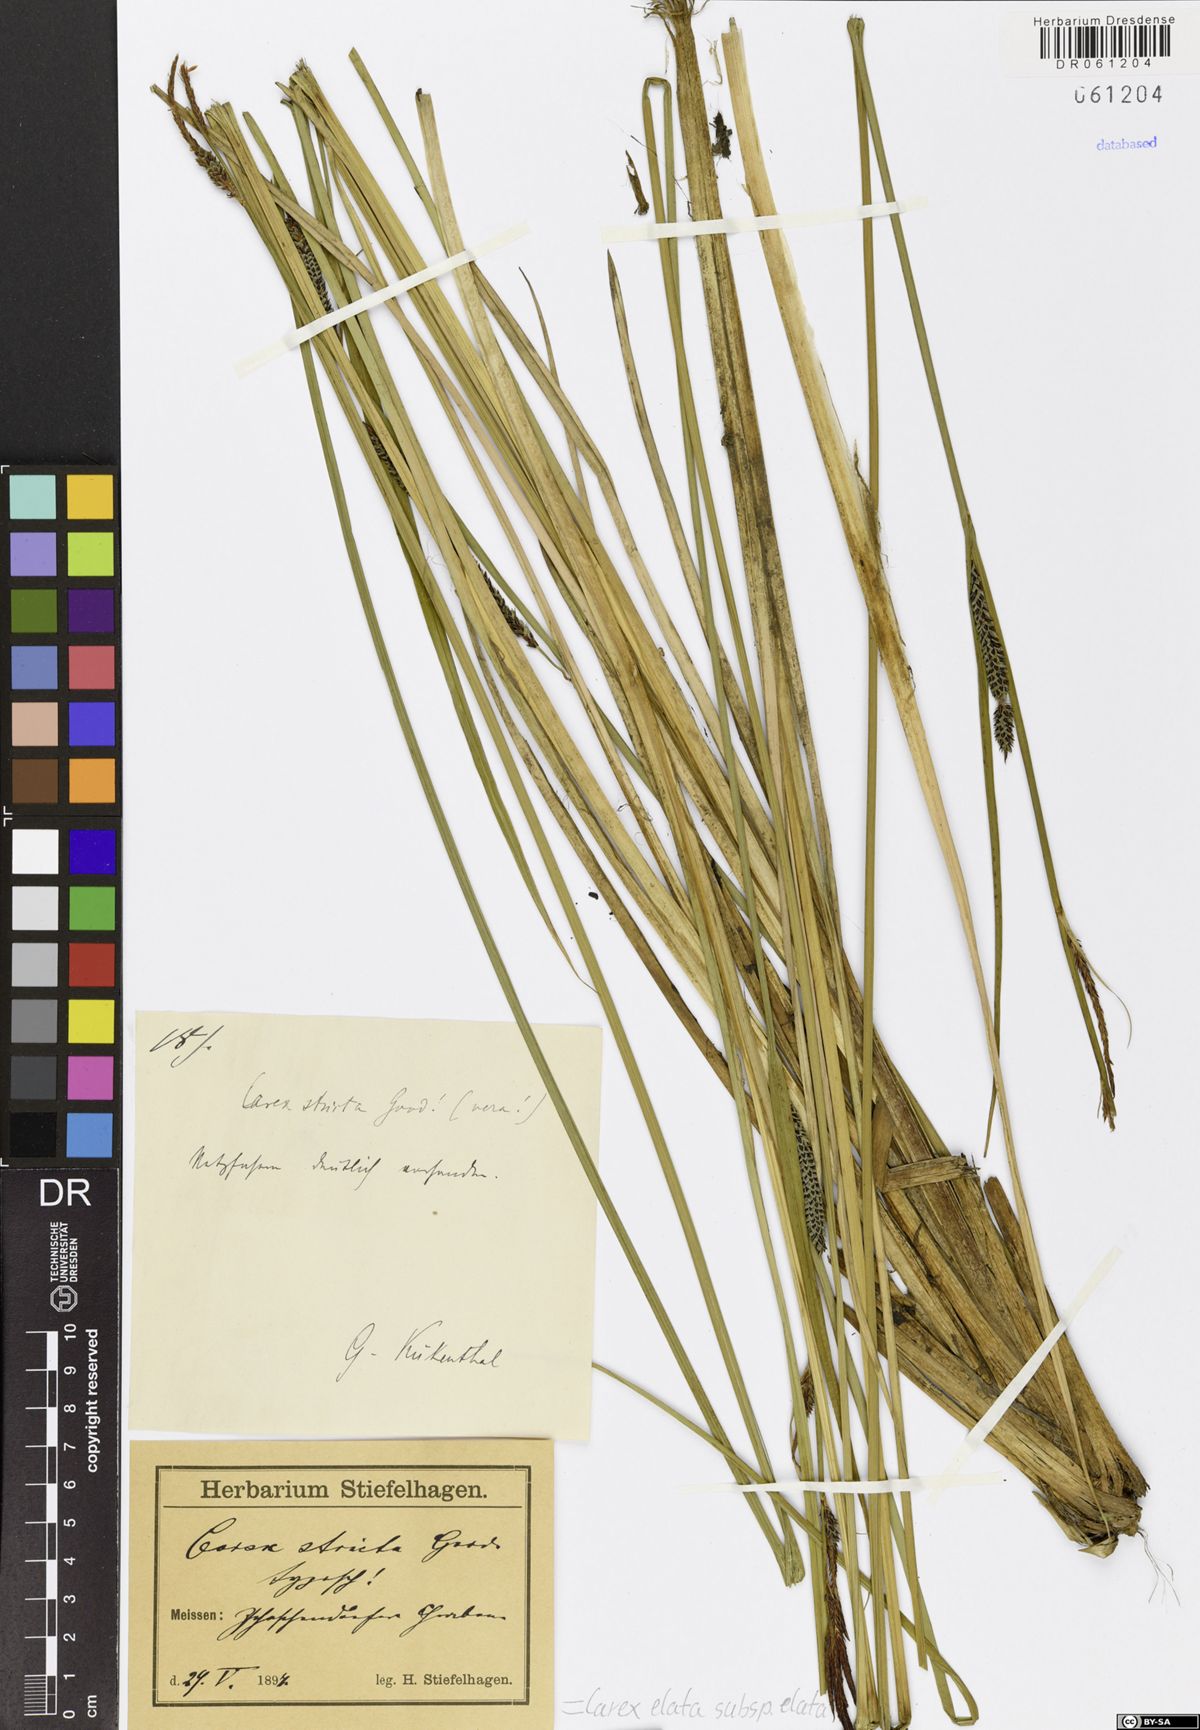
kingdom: Plantae
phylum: Tracheophyta
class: Liliopsida
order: Poales
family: Cyperaceae
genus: Carex
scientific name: Carex elata
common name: Tufted sedge
